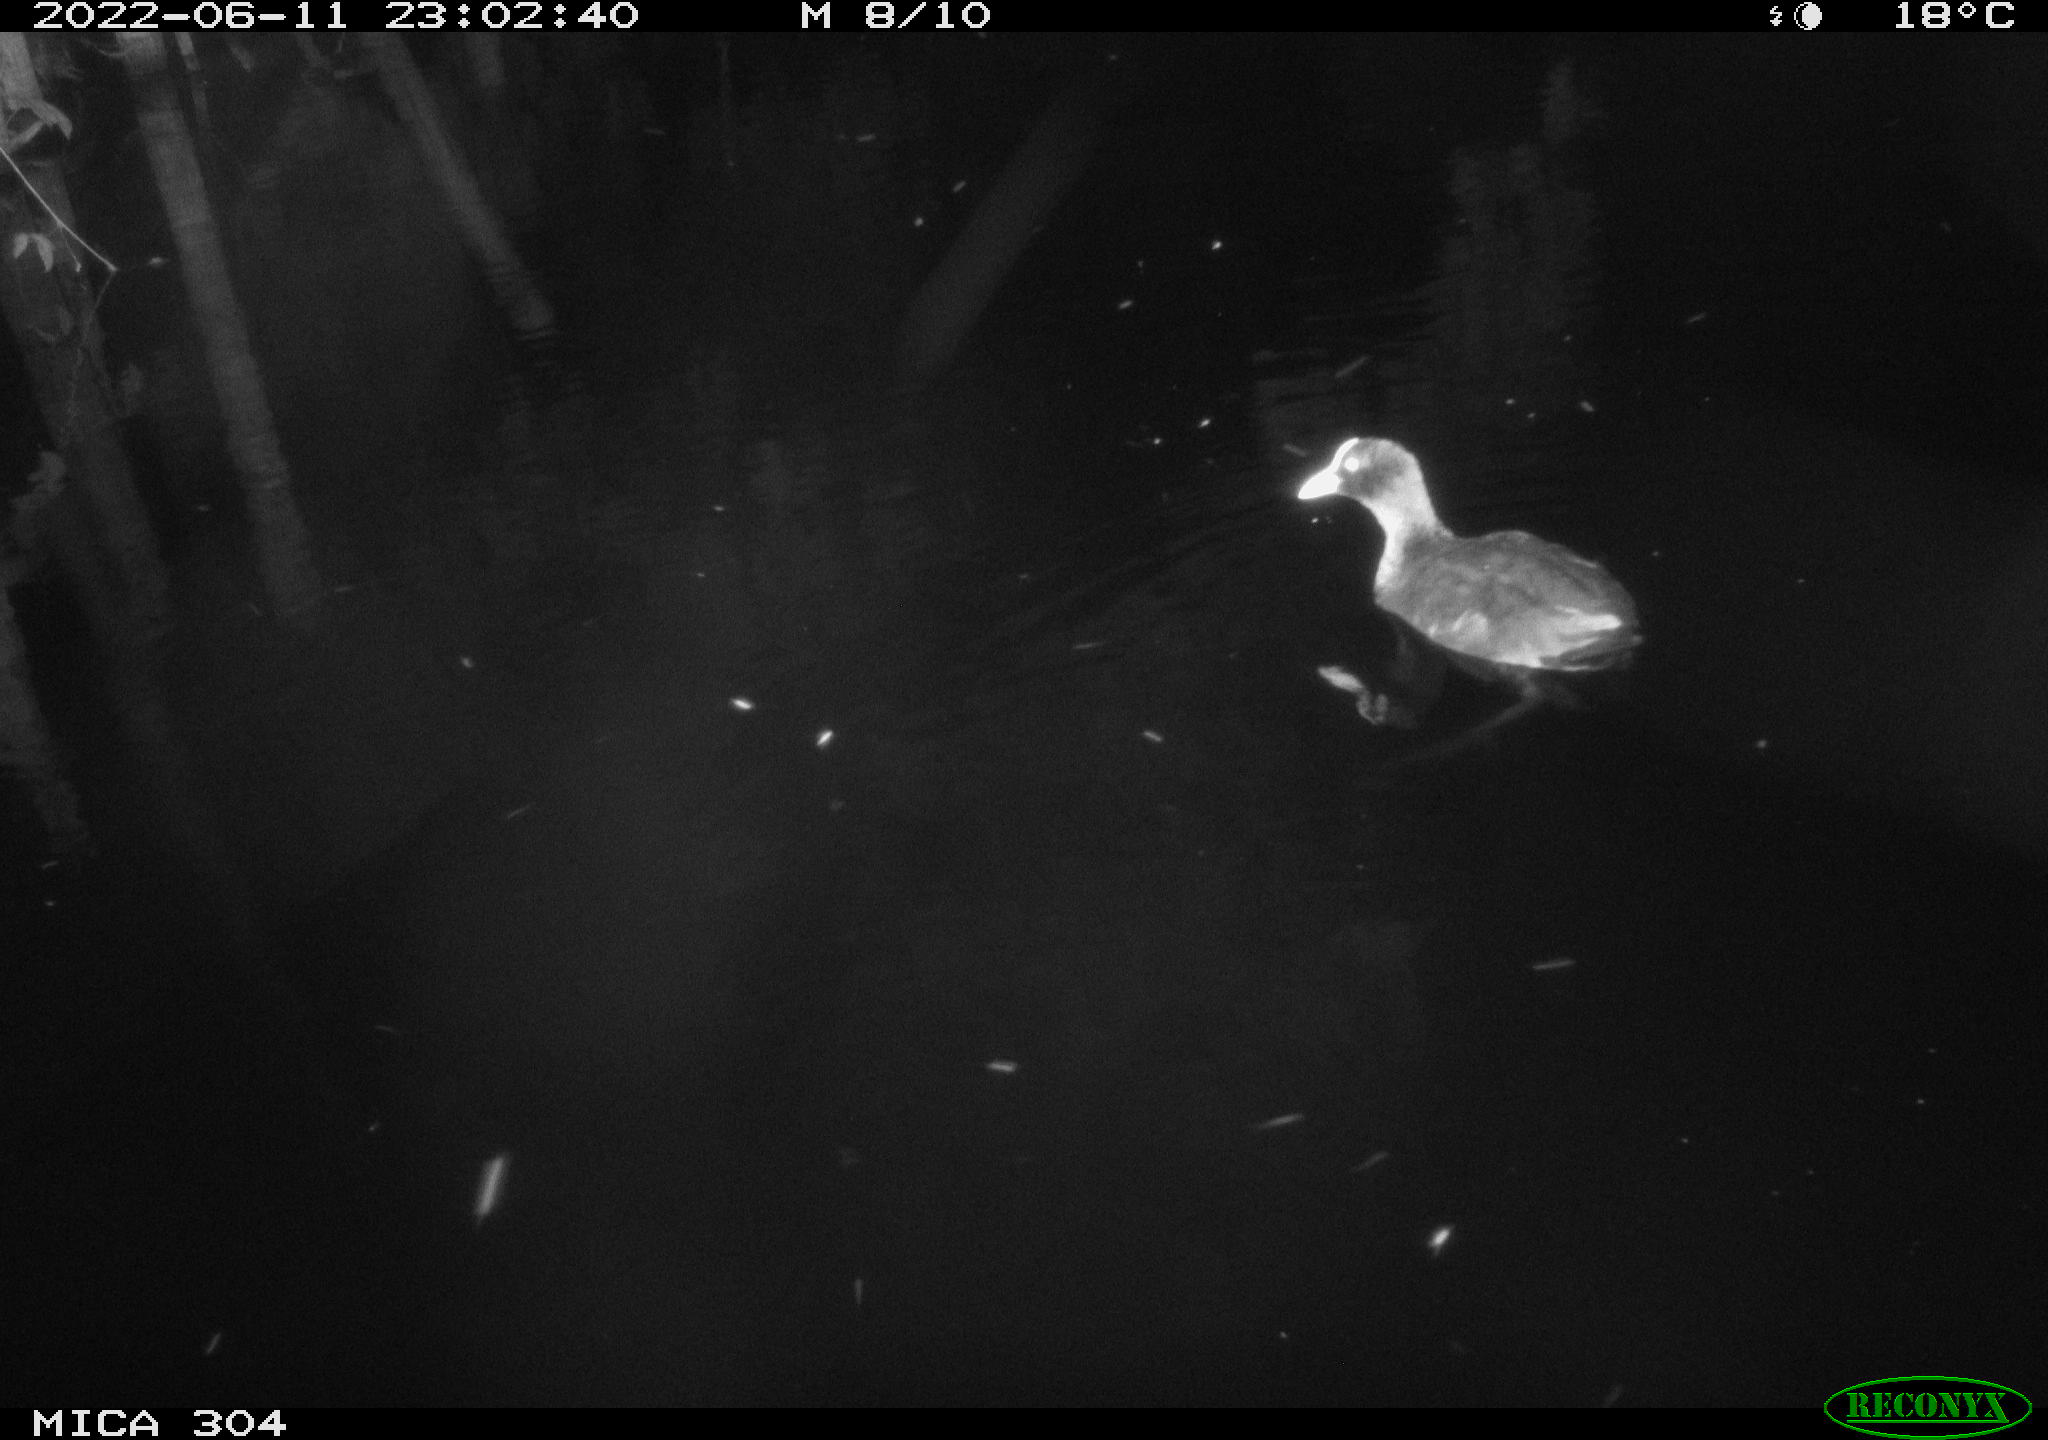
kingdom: Animalia
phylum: Chordata
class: Aves
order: Gruiformes
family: Rallidae
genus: Fulica
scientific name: Fulica atra
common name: Eurasian coot
